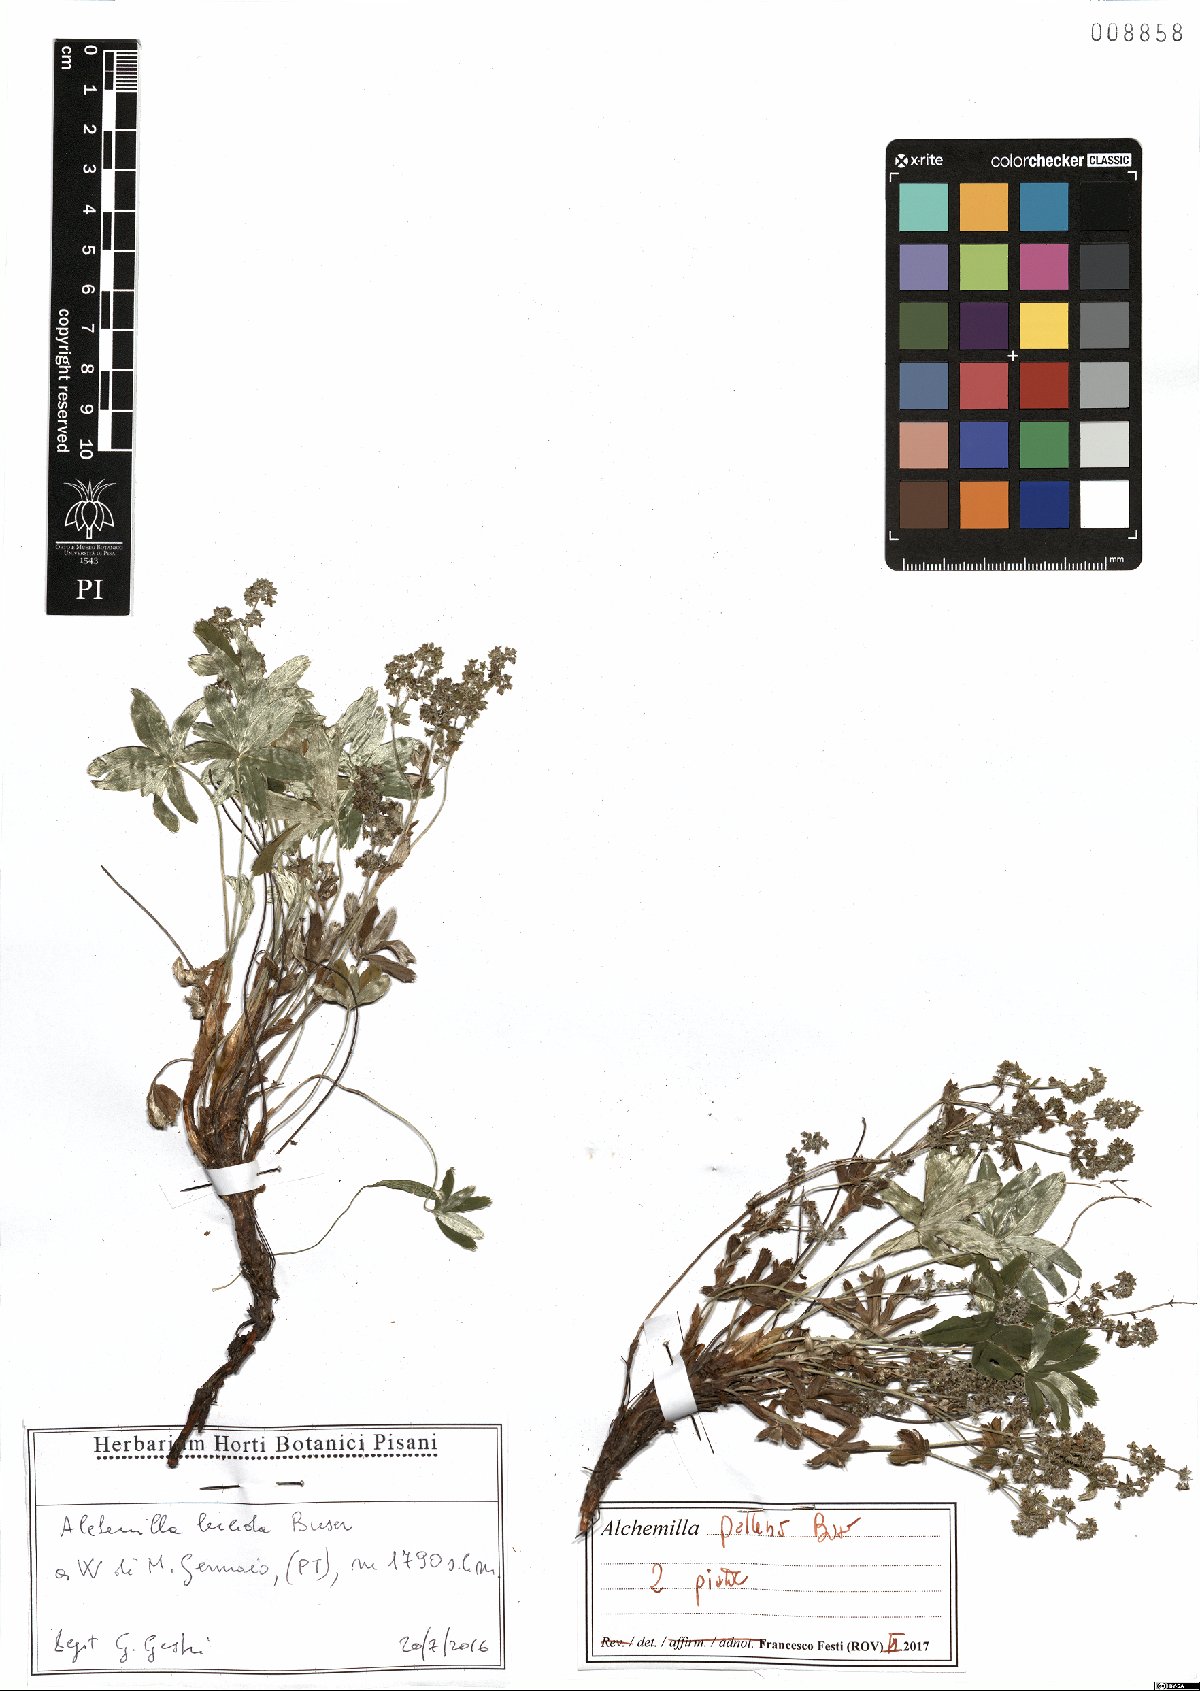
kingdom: Plantae
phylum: Tracheophyta
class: Magnoliopsida
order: Rosales
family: Rosaceae
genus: Alchemilla
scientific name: Alchemilla pallens
